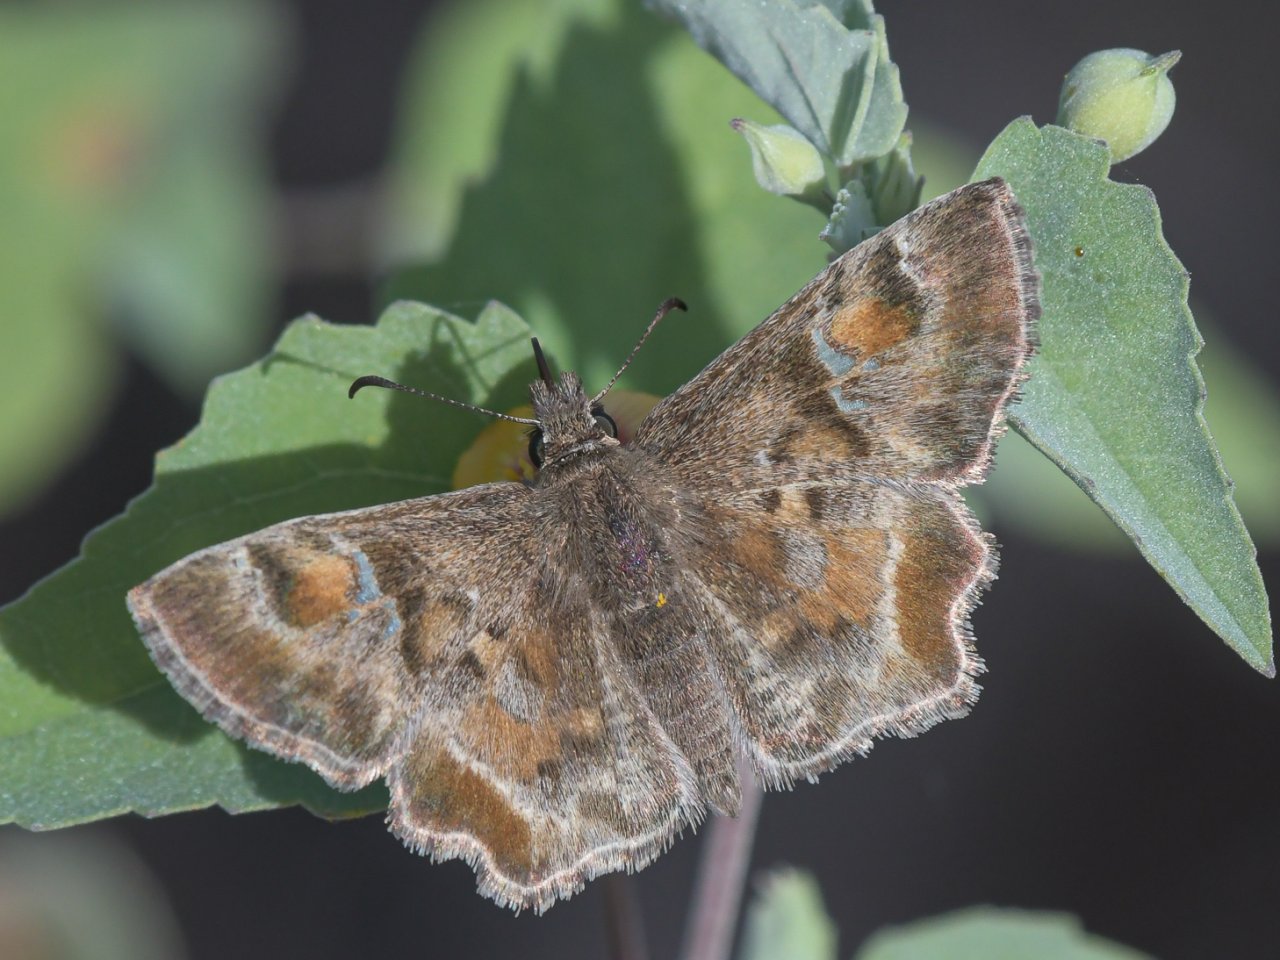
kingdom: Animalia
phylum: Arthropoda
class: Insecta
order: Lepidoptera
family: Hesperiidae
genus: Systasea
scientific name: Systasea zampa
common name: Arizona Powdered-Skipper
